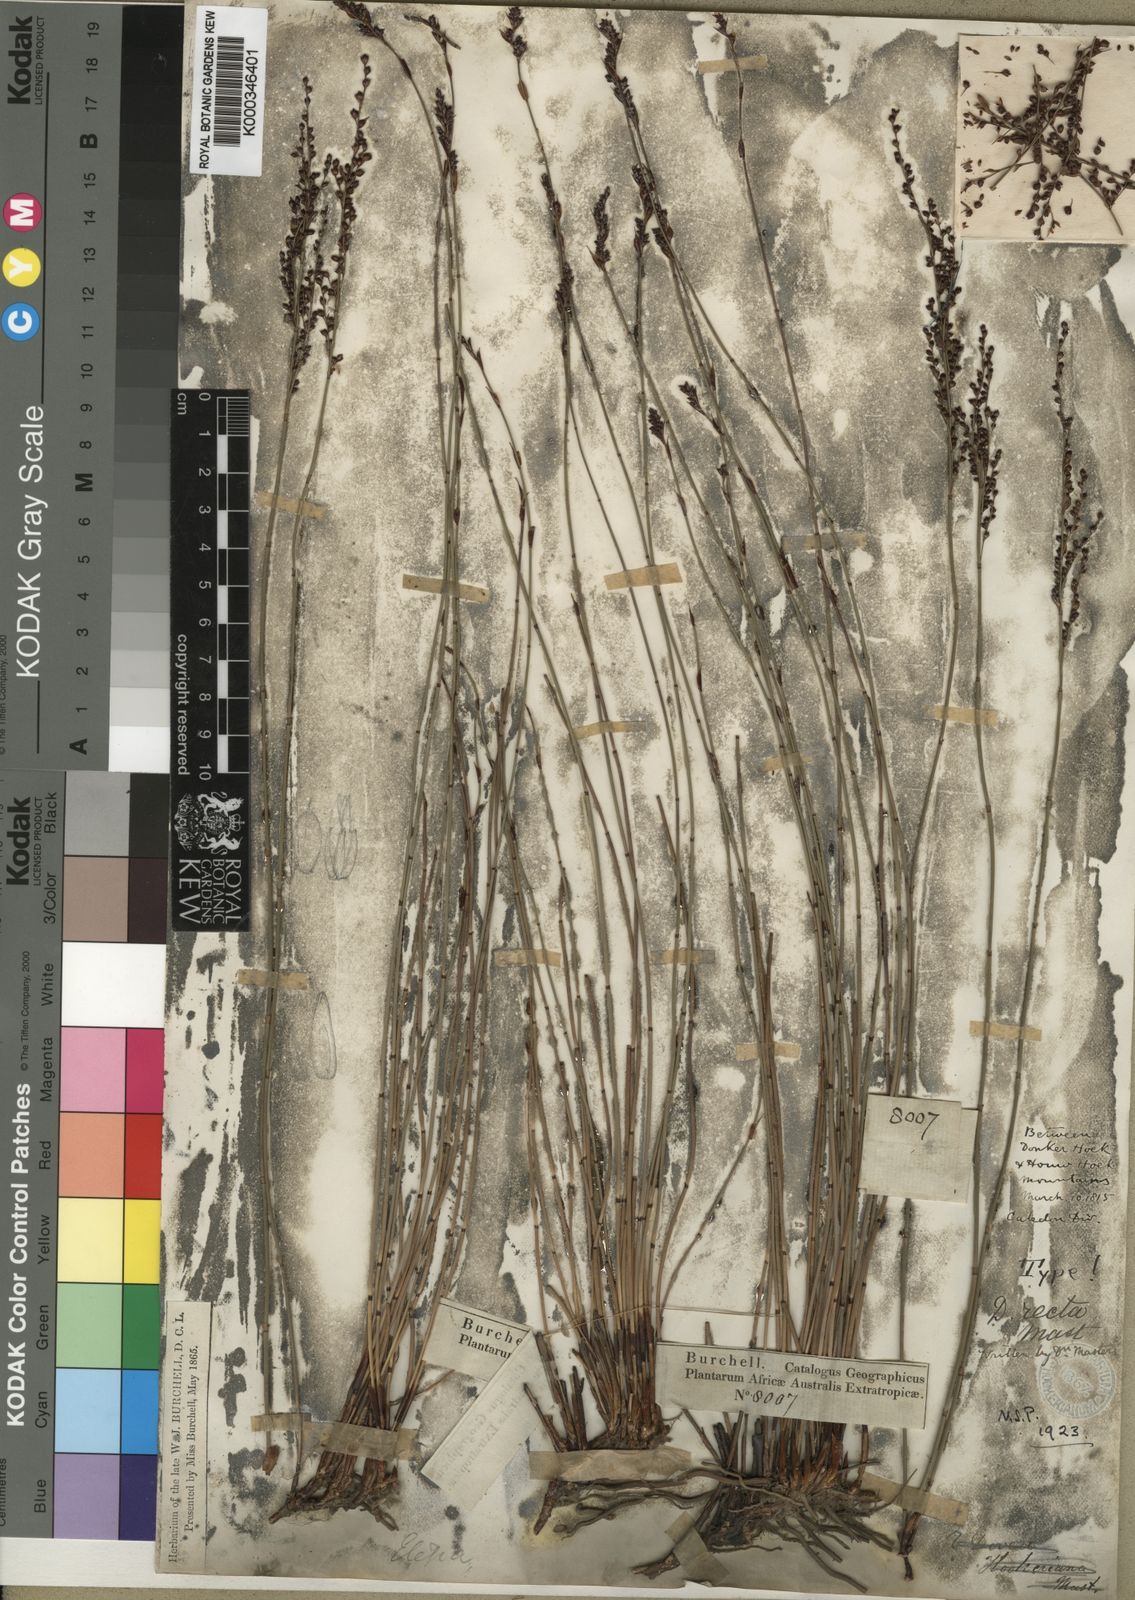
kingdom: Plantae
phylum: Tracheophyta
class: Liliopsida
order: Poales
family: Restionaceae
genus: Elegia
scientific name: Elegia recta
